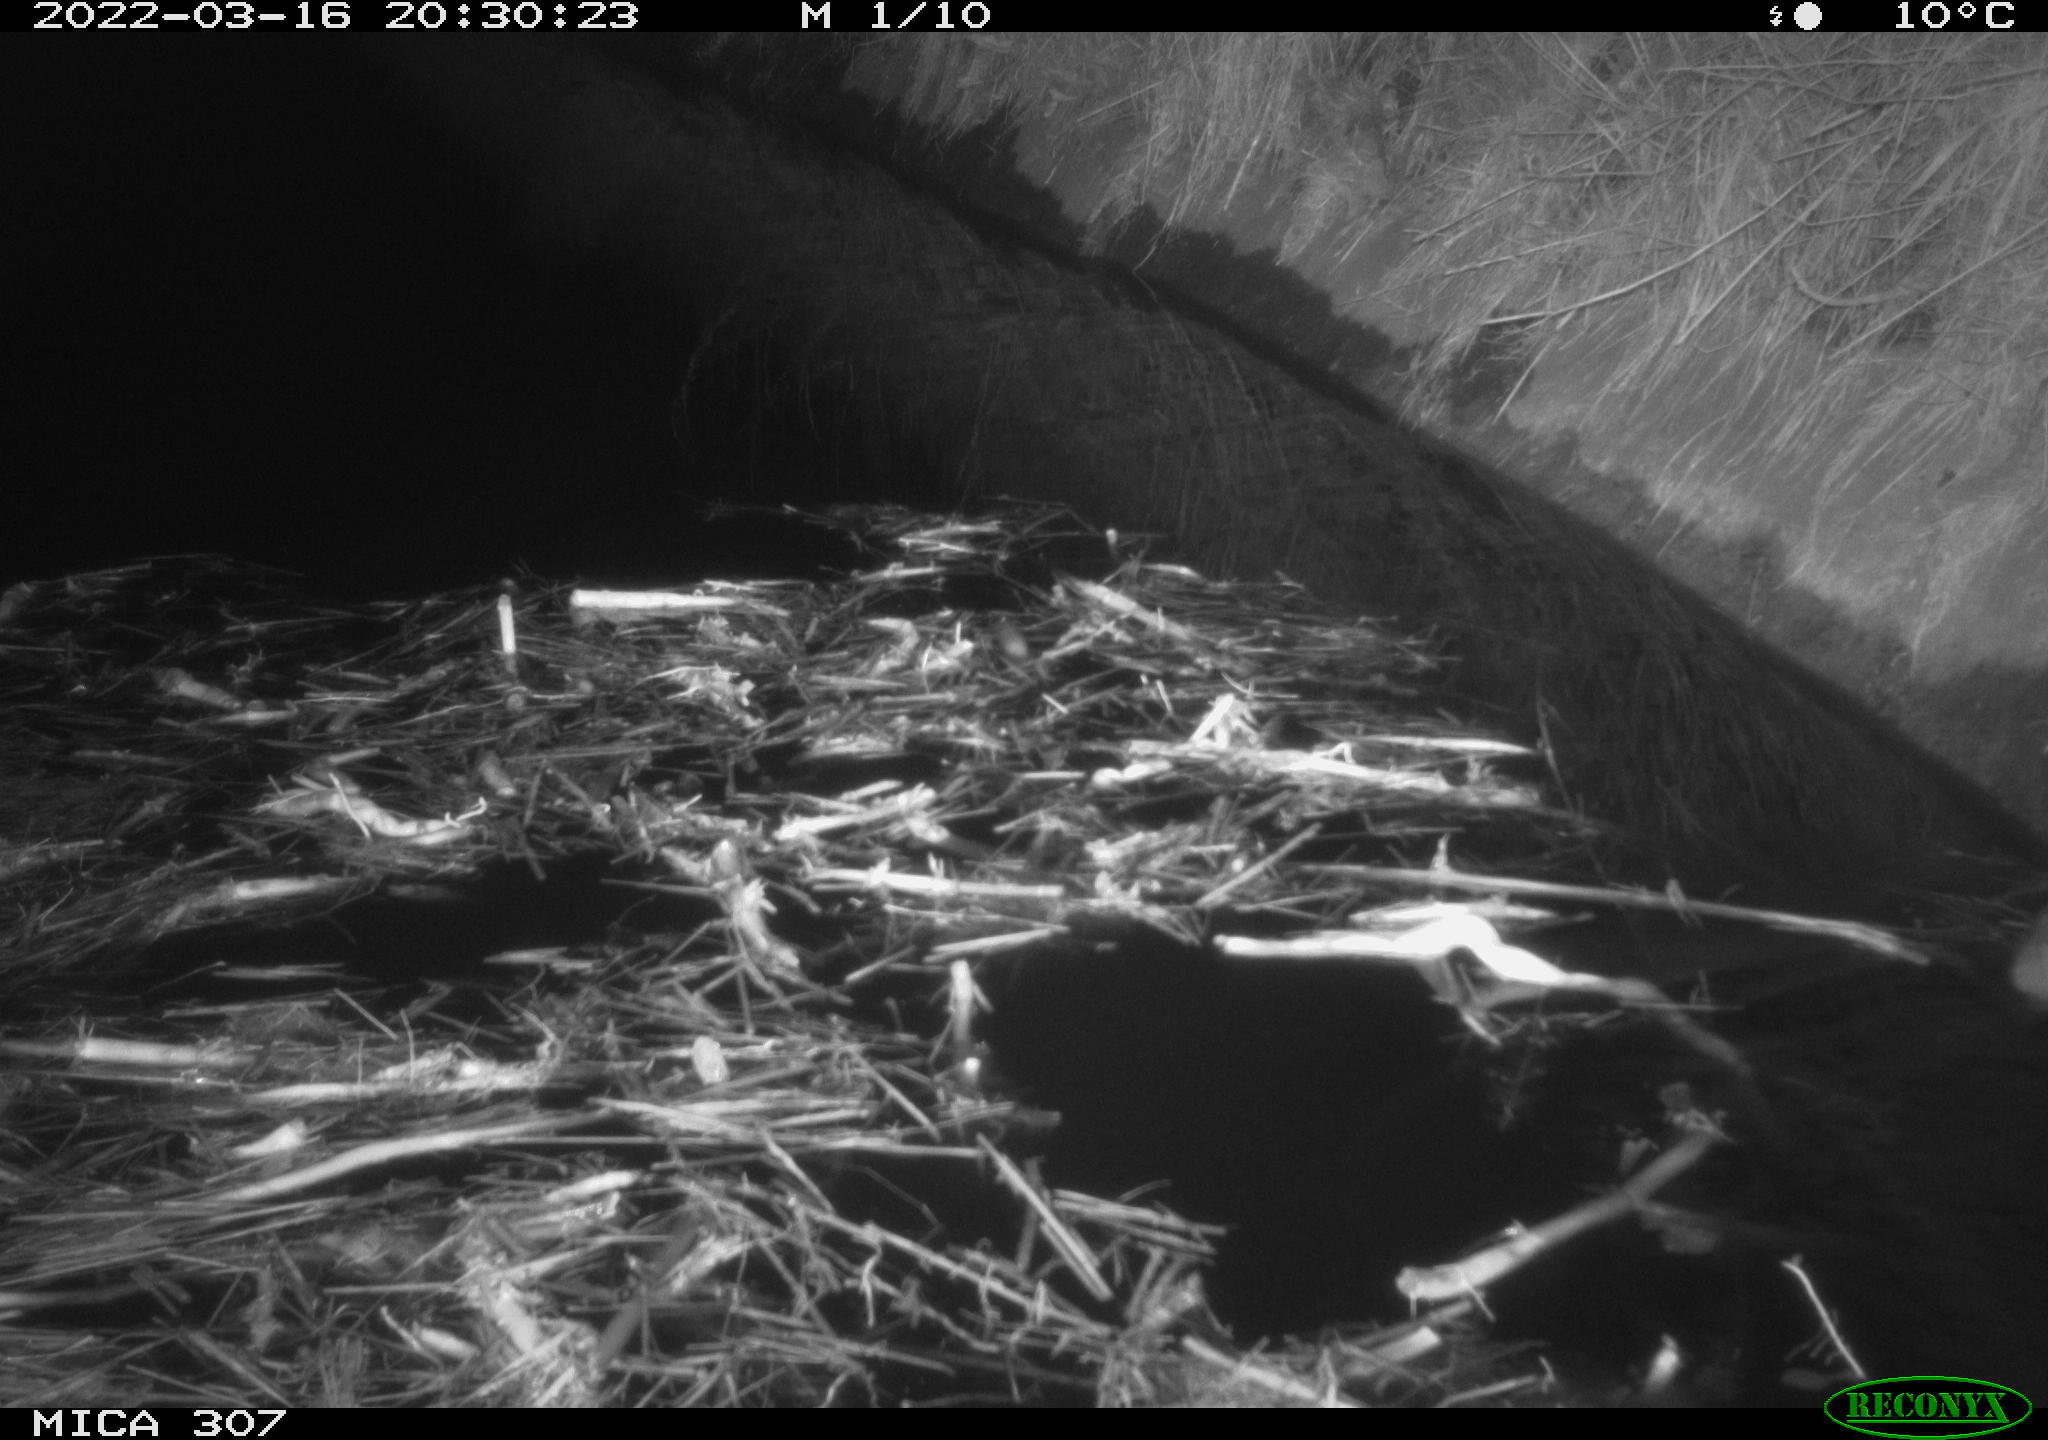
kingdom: Animalia
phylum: Chordata
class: Mammalia
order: Rodentia
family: Muridae
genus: Rattus
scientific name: Rattus norvegicus
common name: Brown rat
